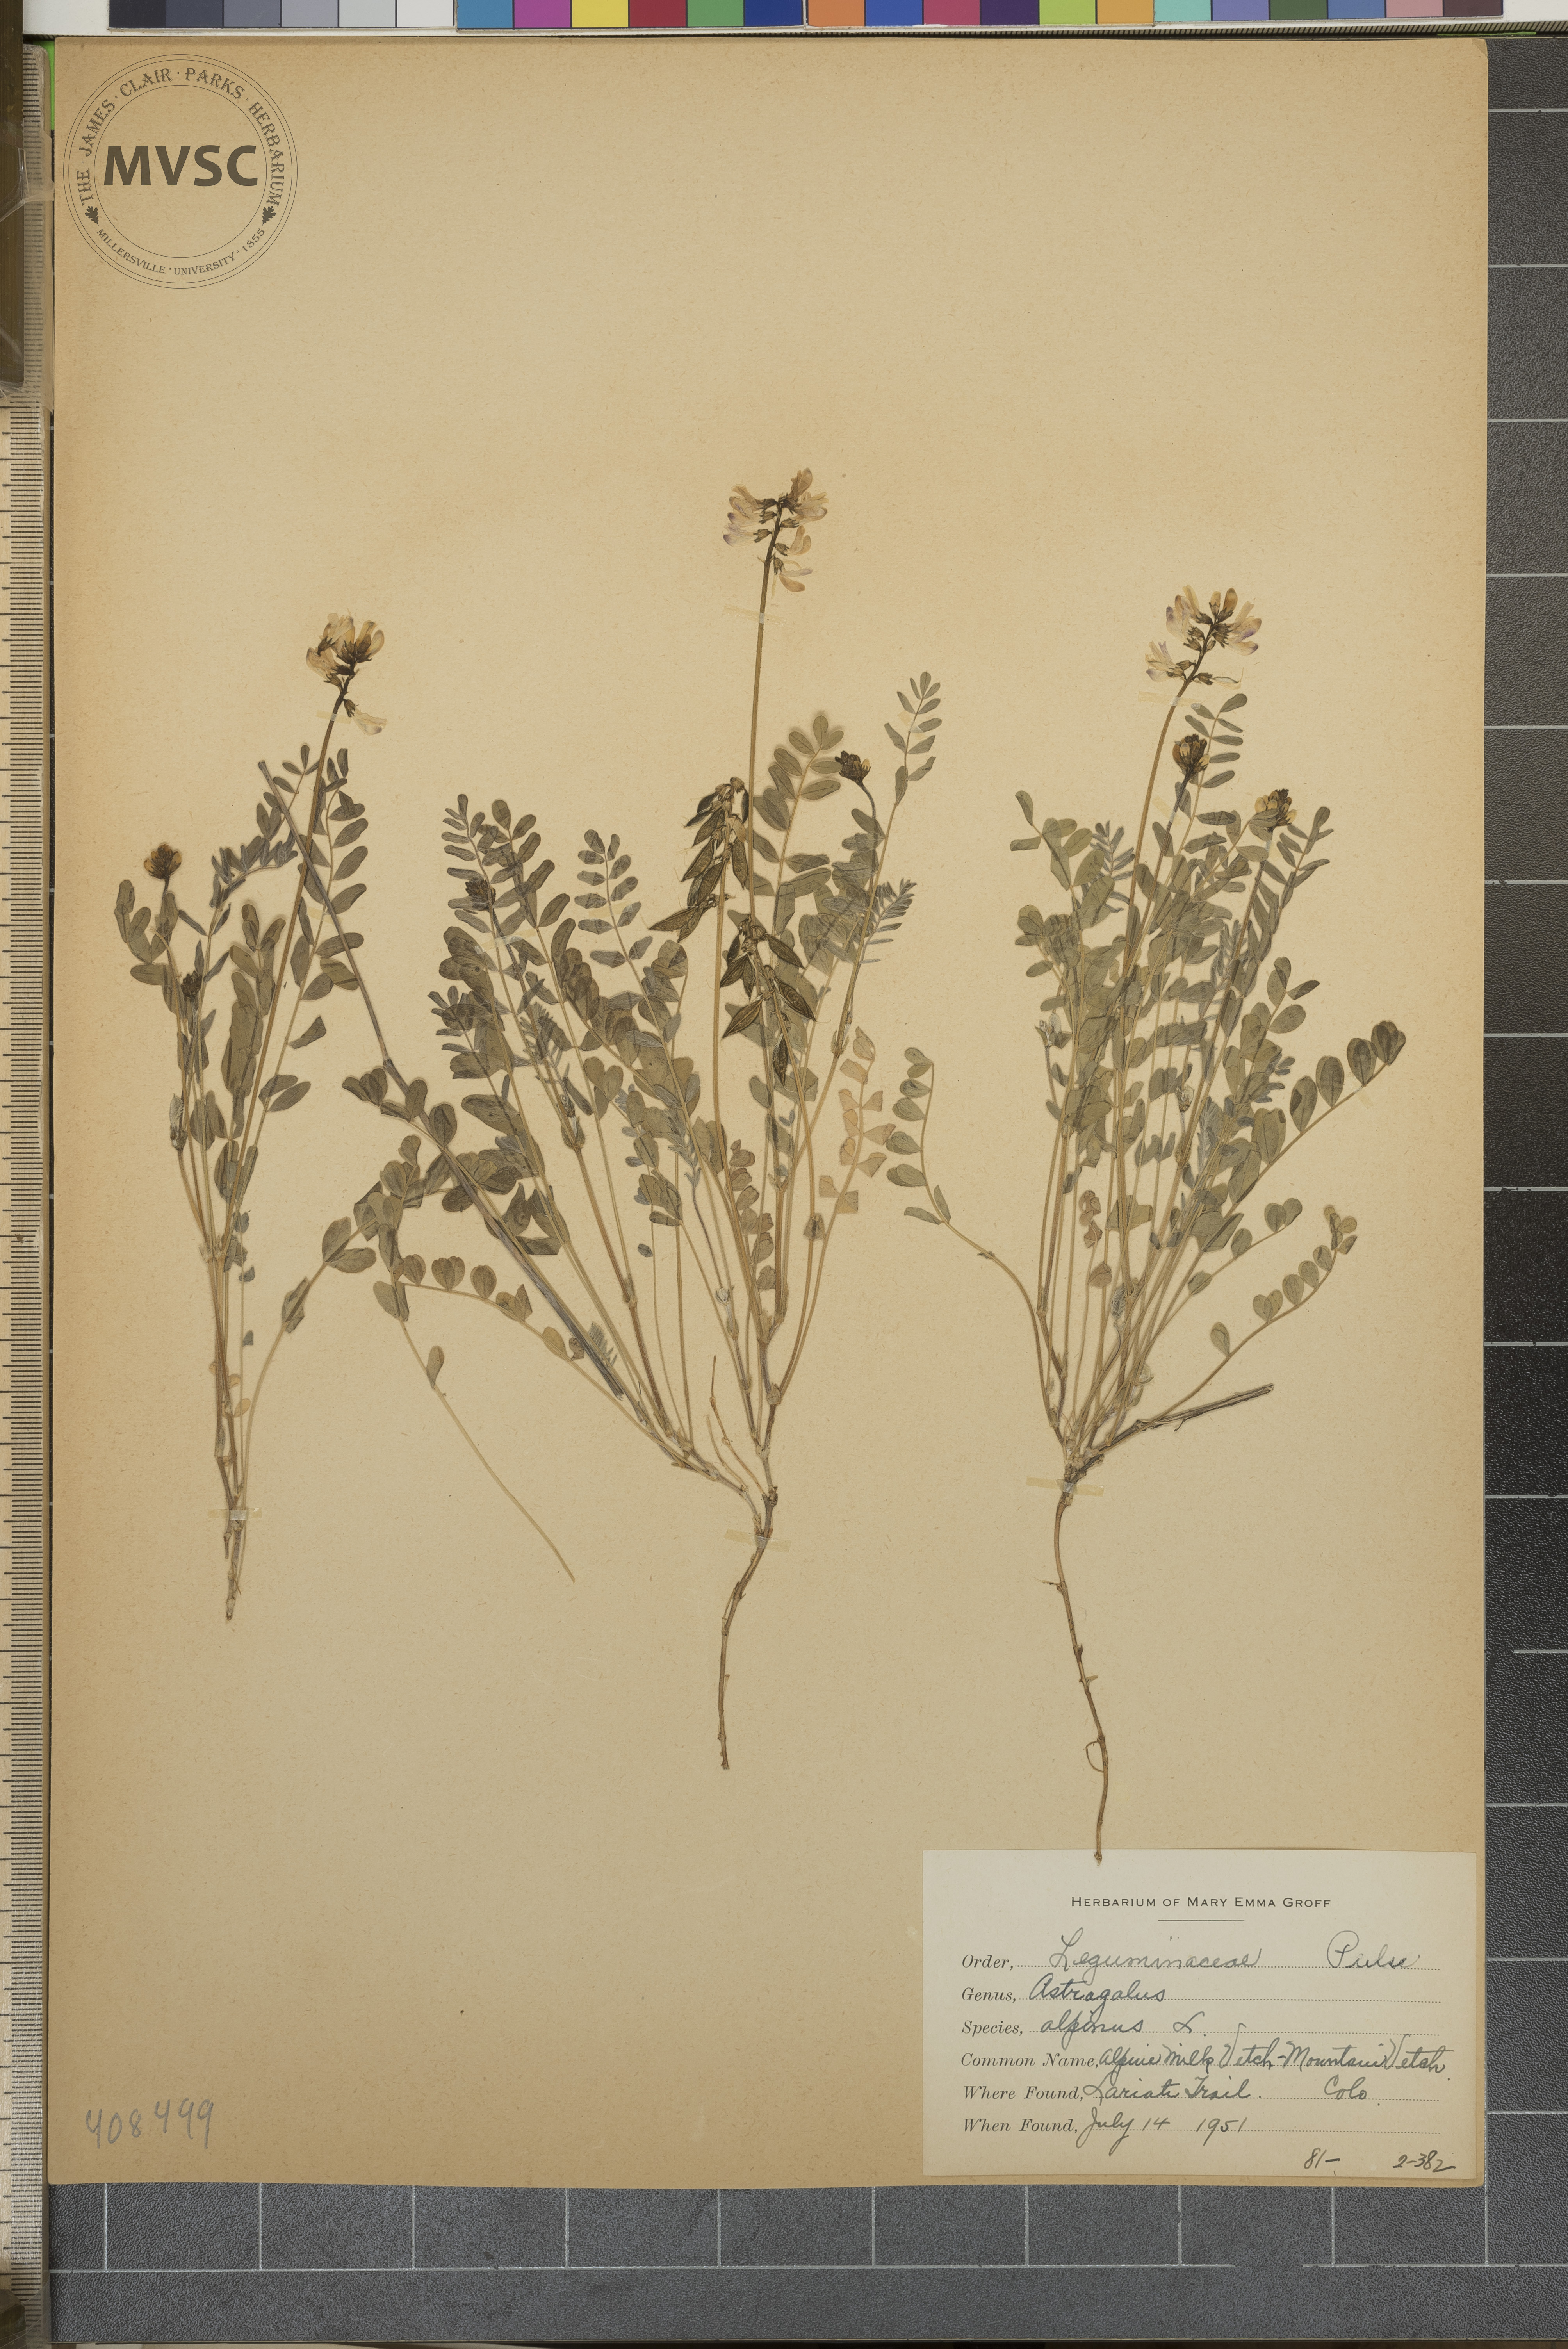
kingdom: Plantae
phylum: Tracheophyta
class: Magnoliopsida
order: Fabales
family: Fabaceae
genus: Astragalus
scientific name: Astragalus alpinus
